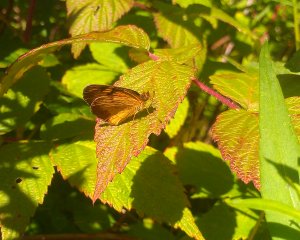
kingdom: Animalia
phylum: Arthropoda
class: Insecta
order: Lepidoptera
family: Nymphalidae
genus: Phyciodes
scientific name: Phyciodes tharos
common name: Northern Crescent
